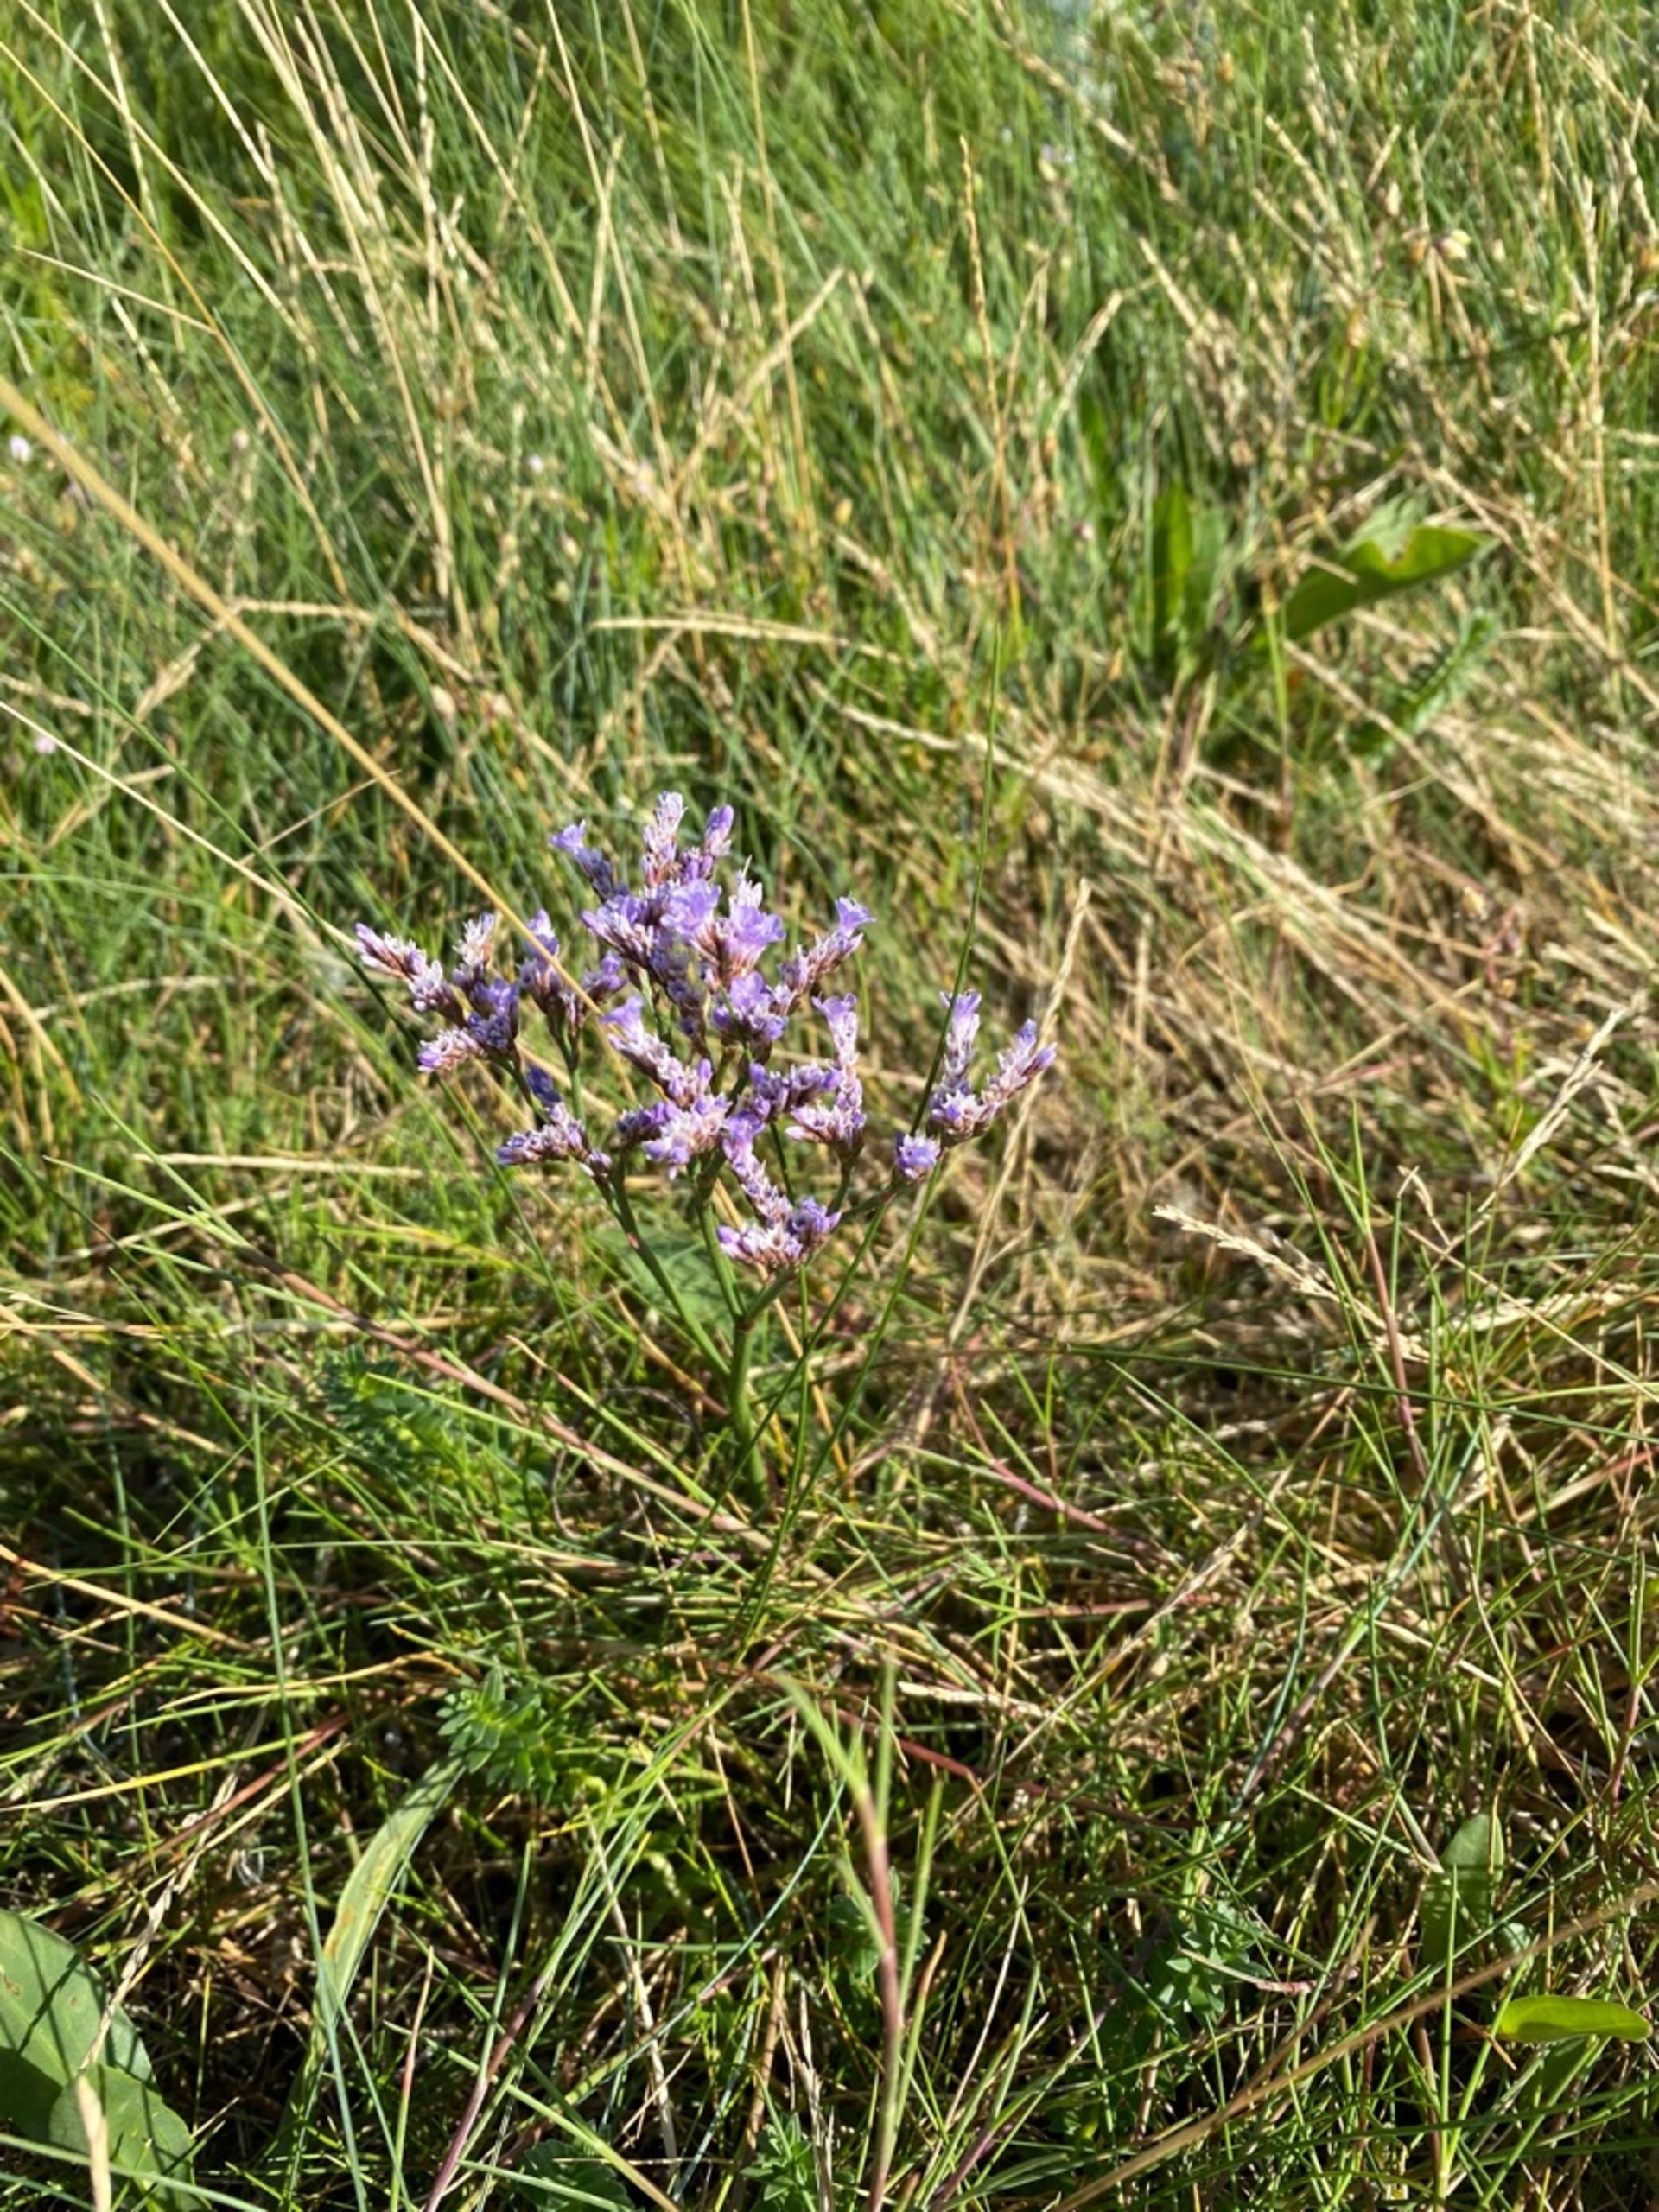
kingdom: Plantae
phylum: Tracheophyta
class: Magnoliopsida
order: Caryophyllales
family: Plumbaginaceae
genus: Limonium
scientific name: Limonium vulgare
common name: Tætblomstret hindebæger
